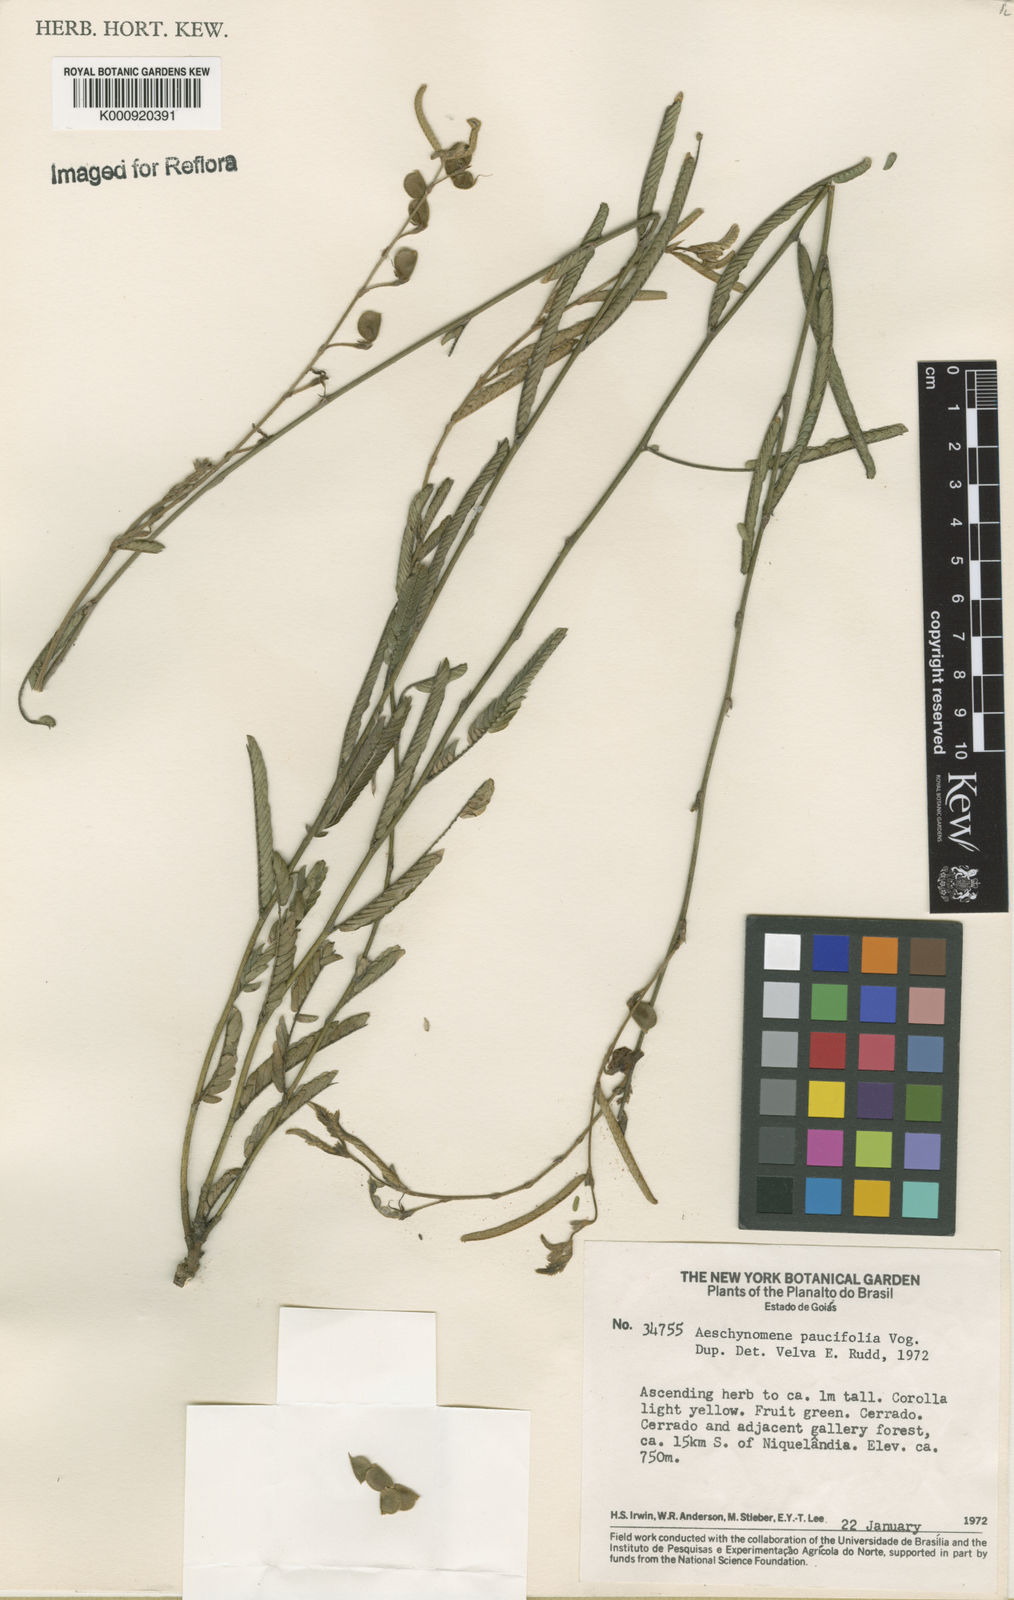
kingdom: Plantae
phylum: Tracheophyta
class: Magnoliopsida
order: Fabales
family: Fabaceae
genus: Ctenodon
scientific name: Ctenodon paucifolius
